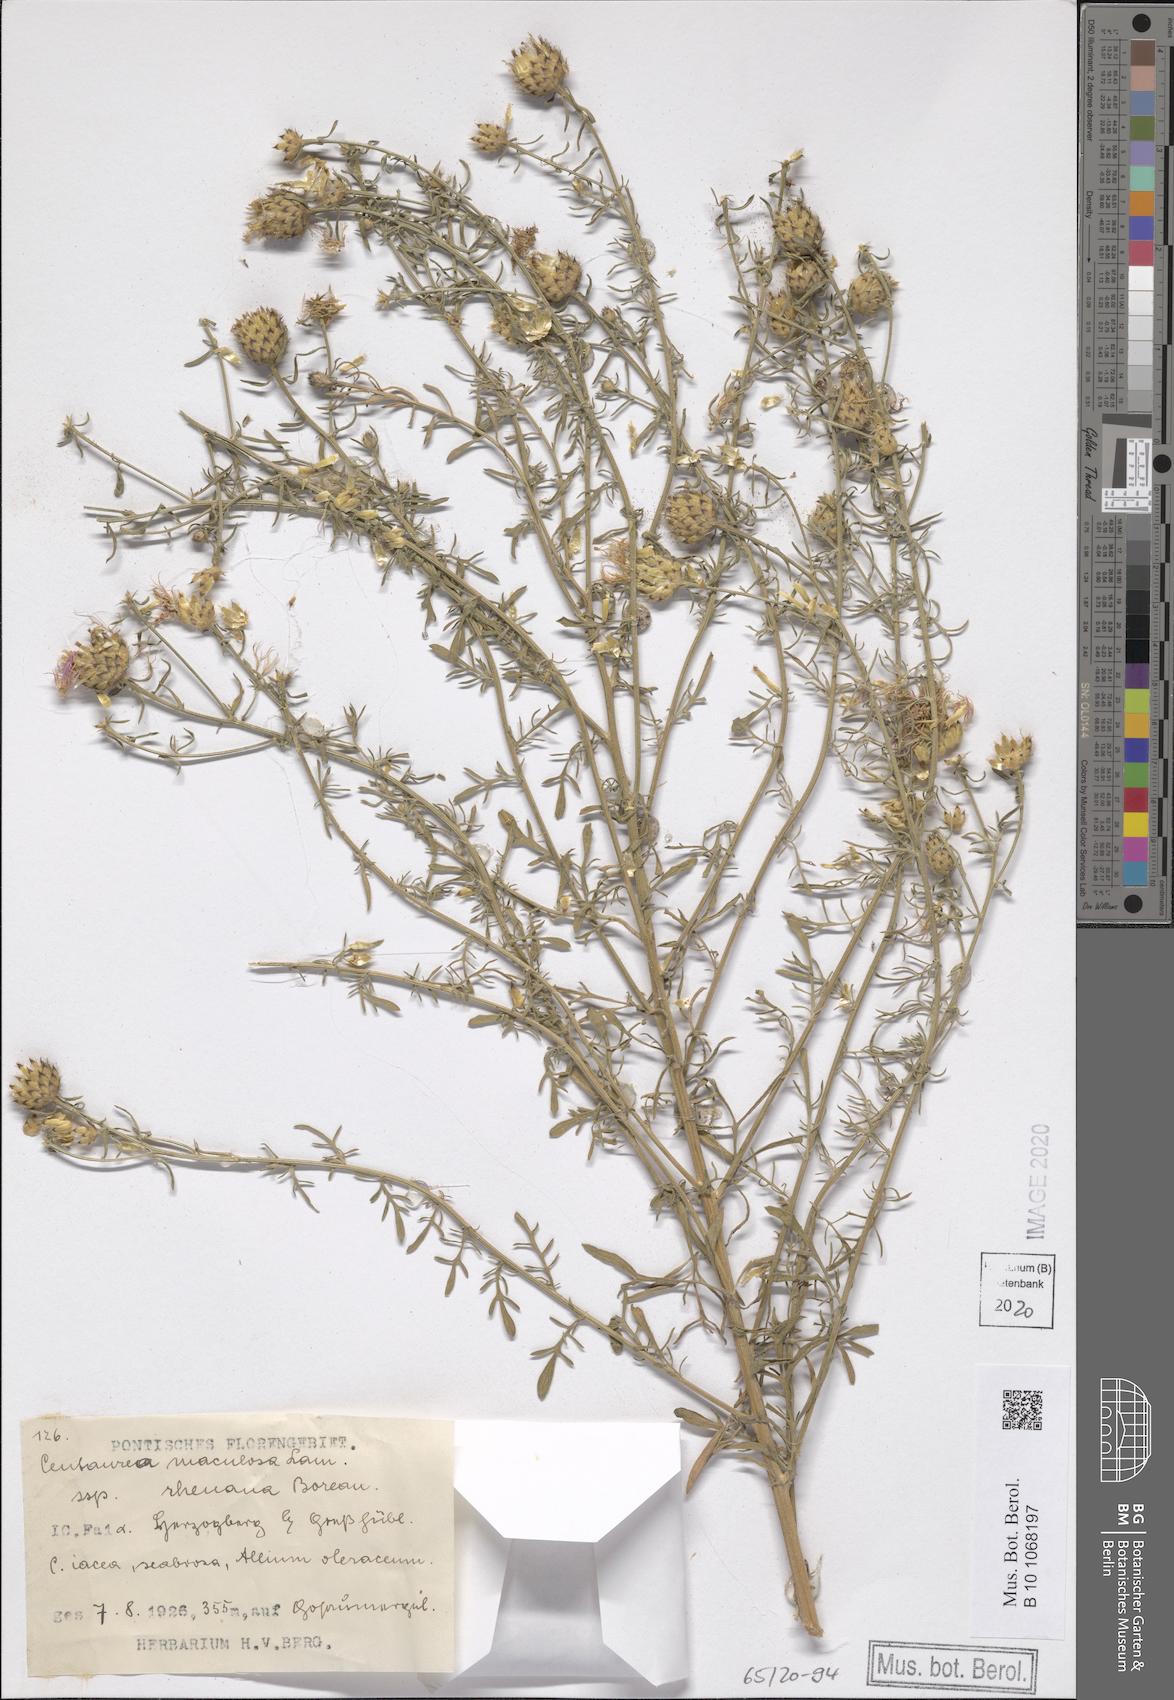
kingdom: Plantae
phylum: Tracheophyta
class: Magnoliopsida
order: Asterales
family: Asteraceae
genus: Centaurea
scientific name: Centaurea stoebe
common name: Spotted knapweed
